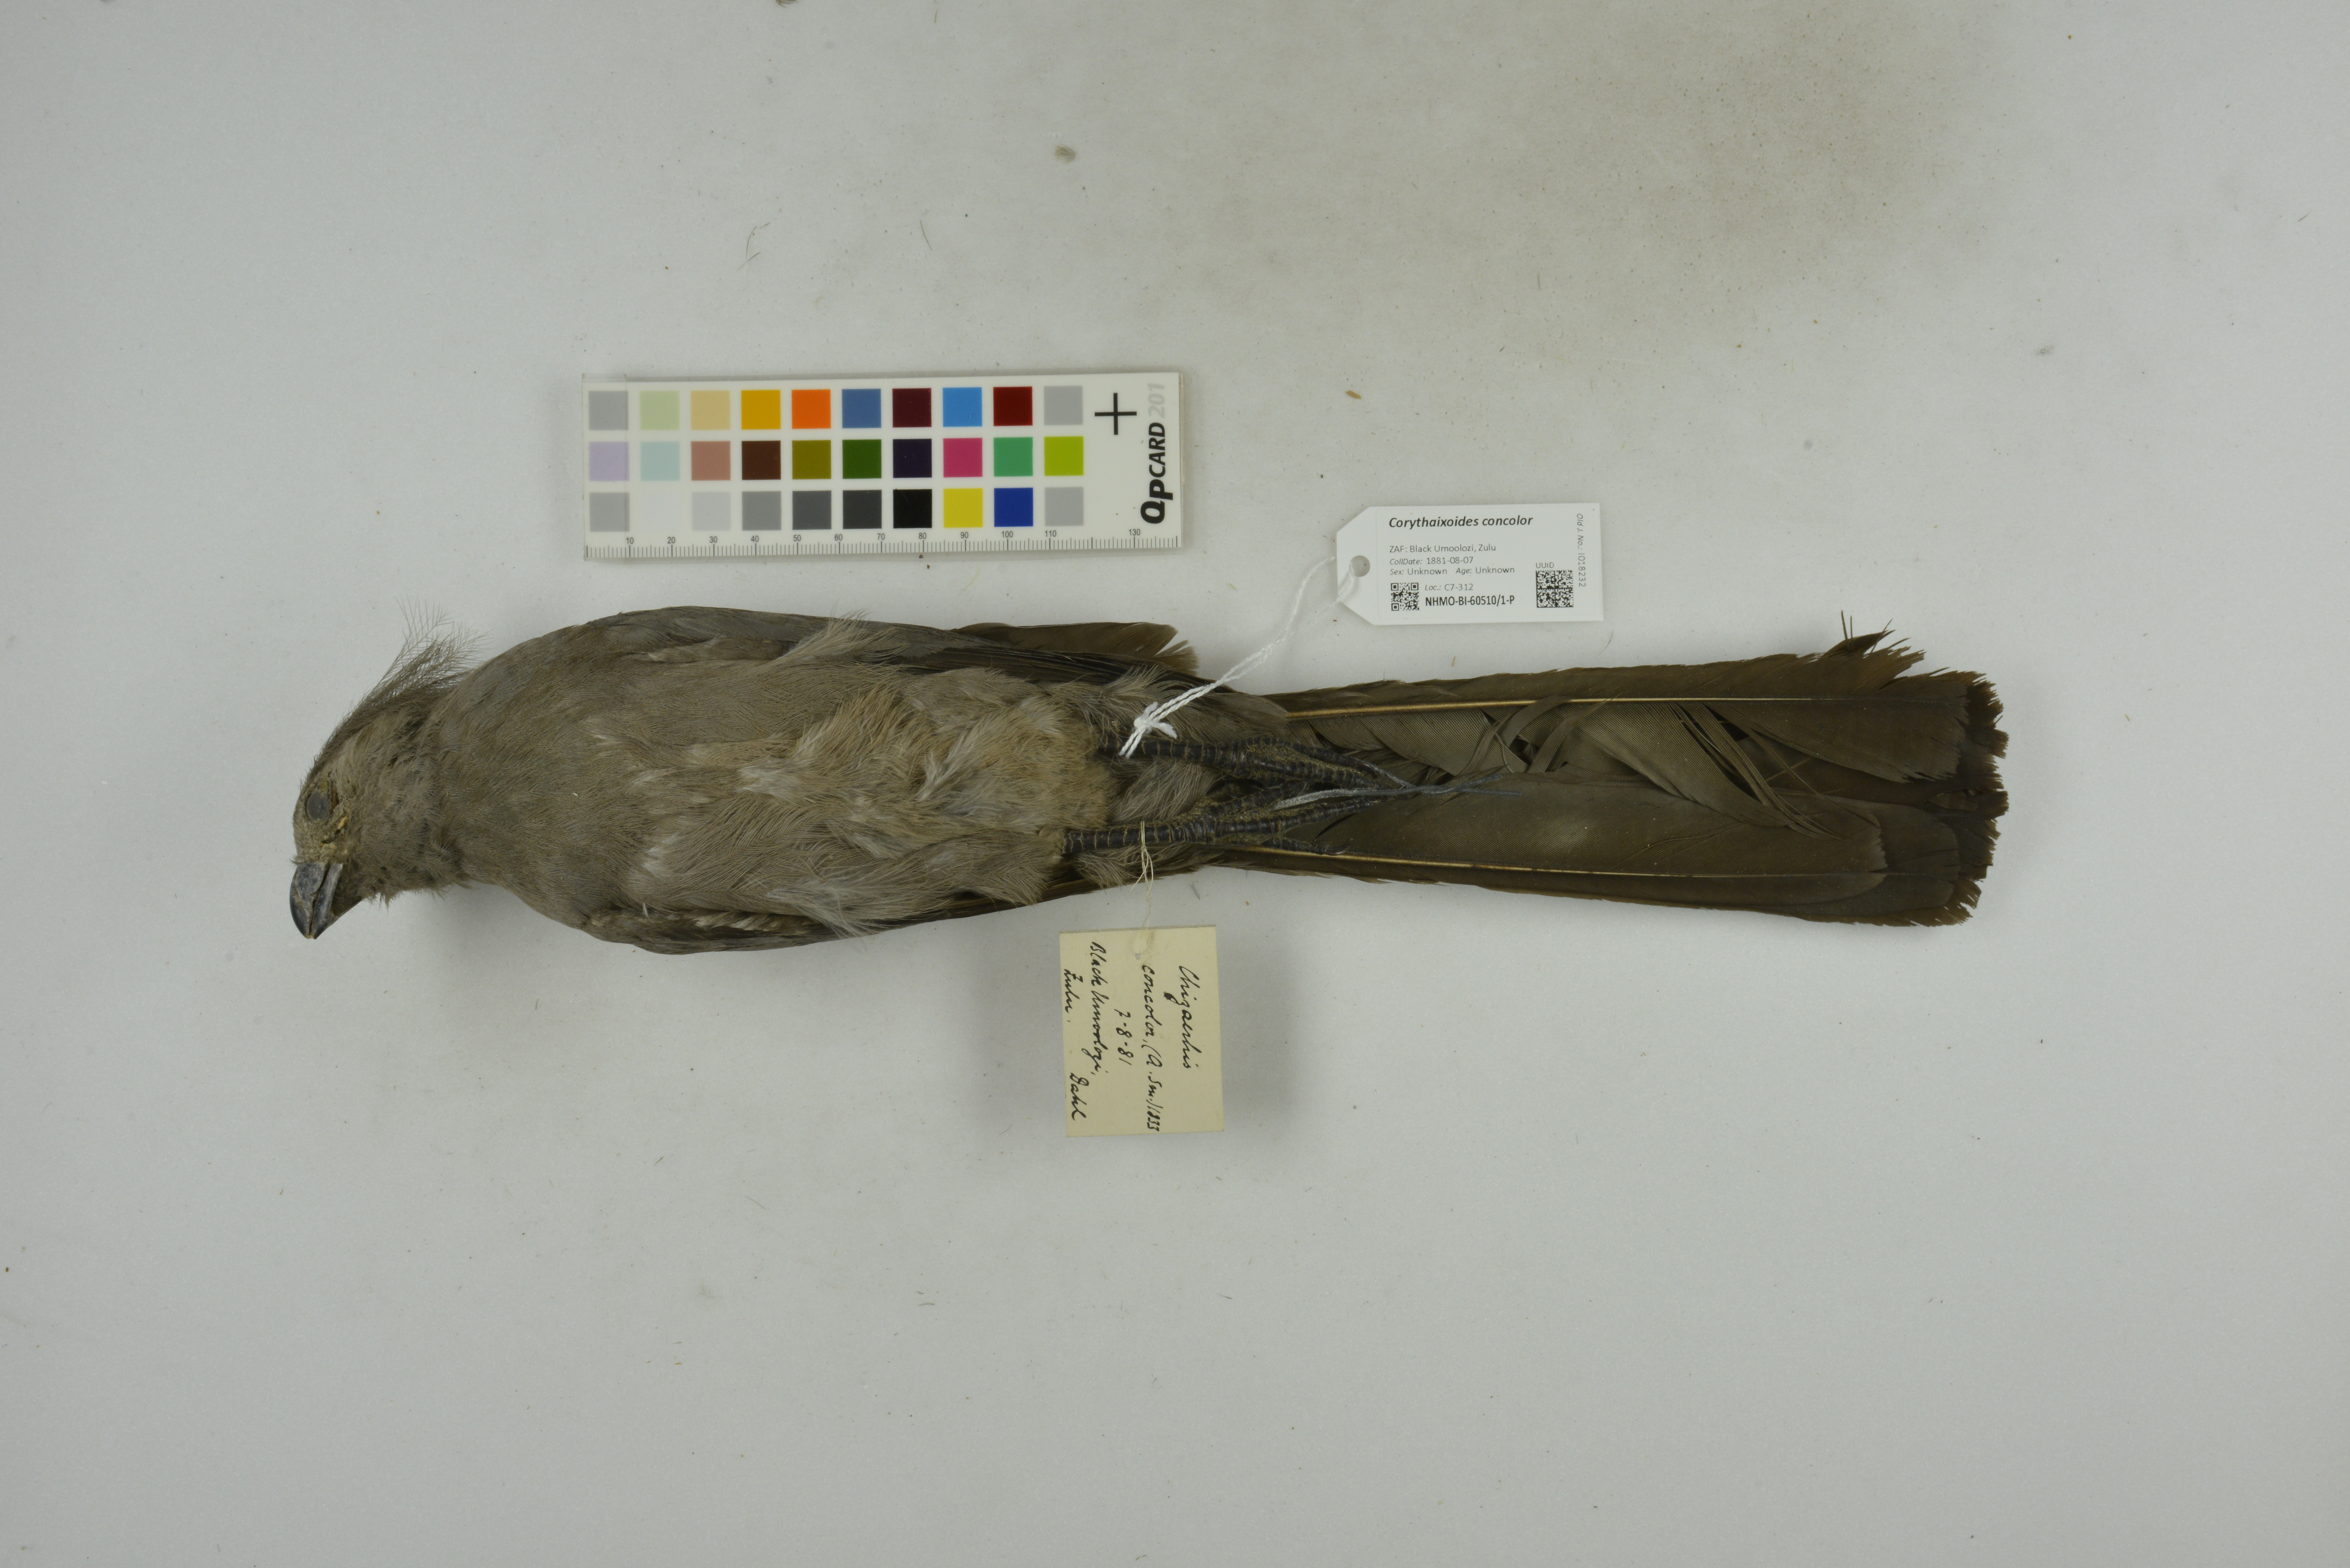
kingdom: Animalia
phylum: Chordata
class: Aves
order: Musophagiformes
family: Musophagidae
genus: Corythaixoides
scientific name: Corythaixoides concolor
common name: Grey go-away-bird
